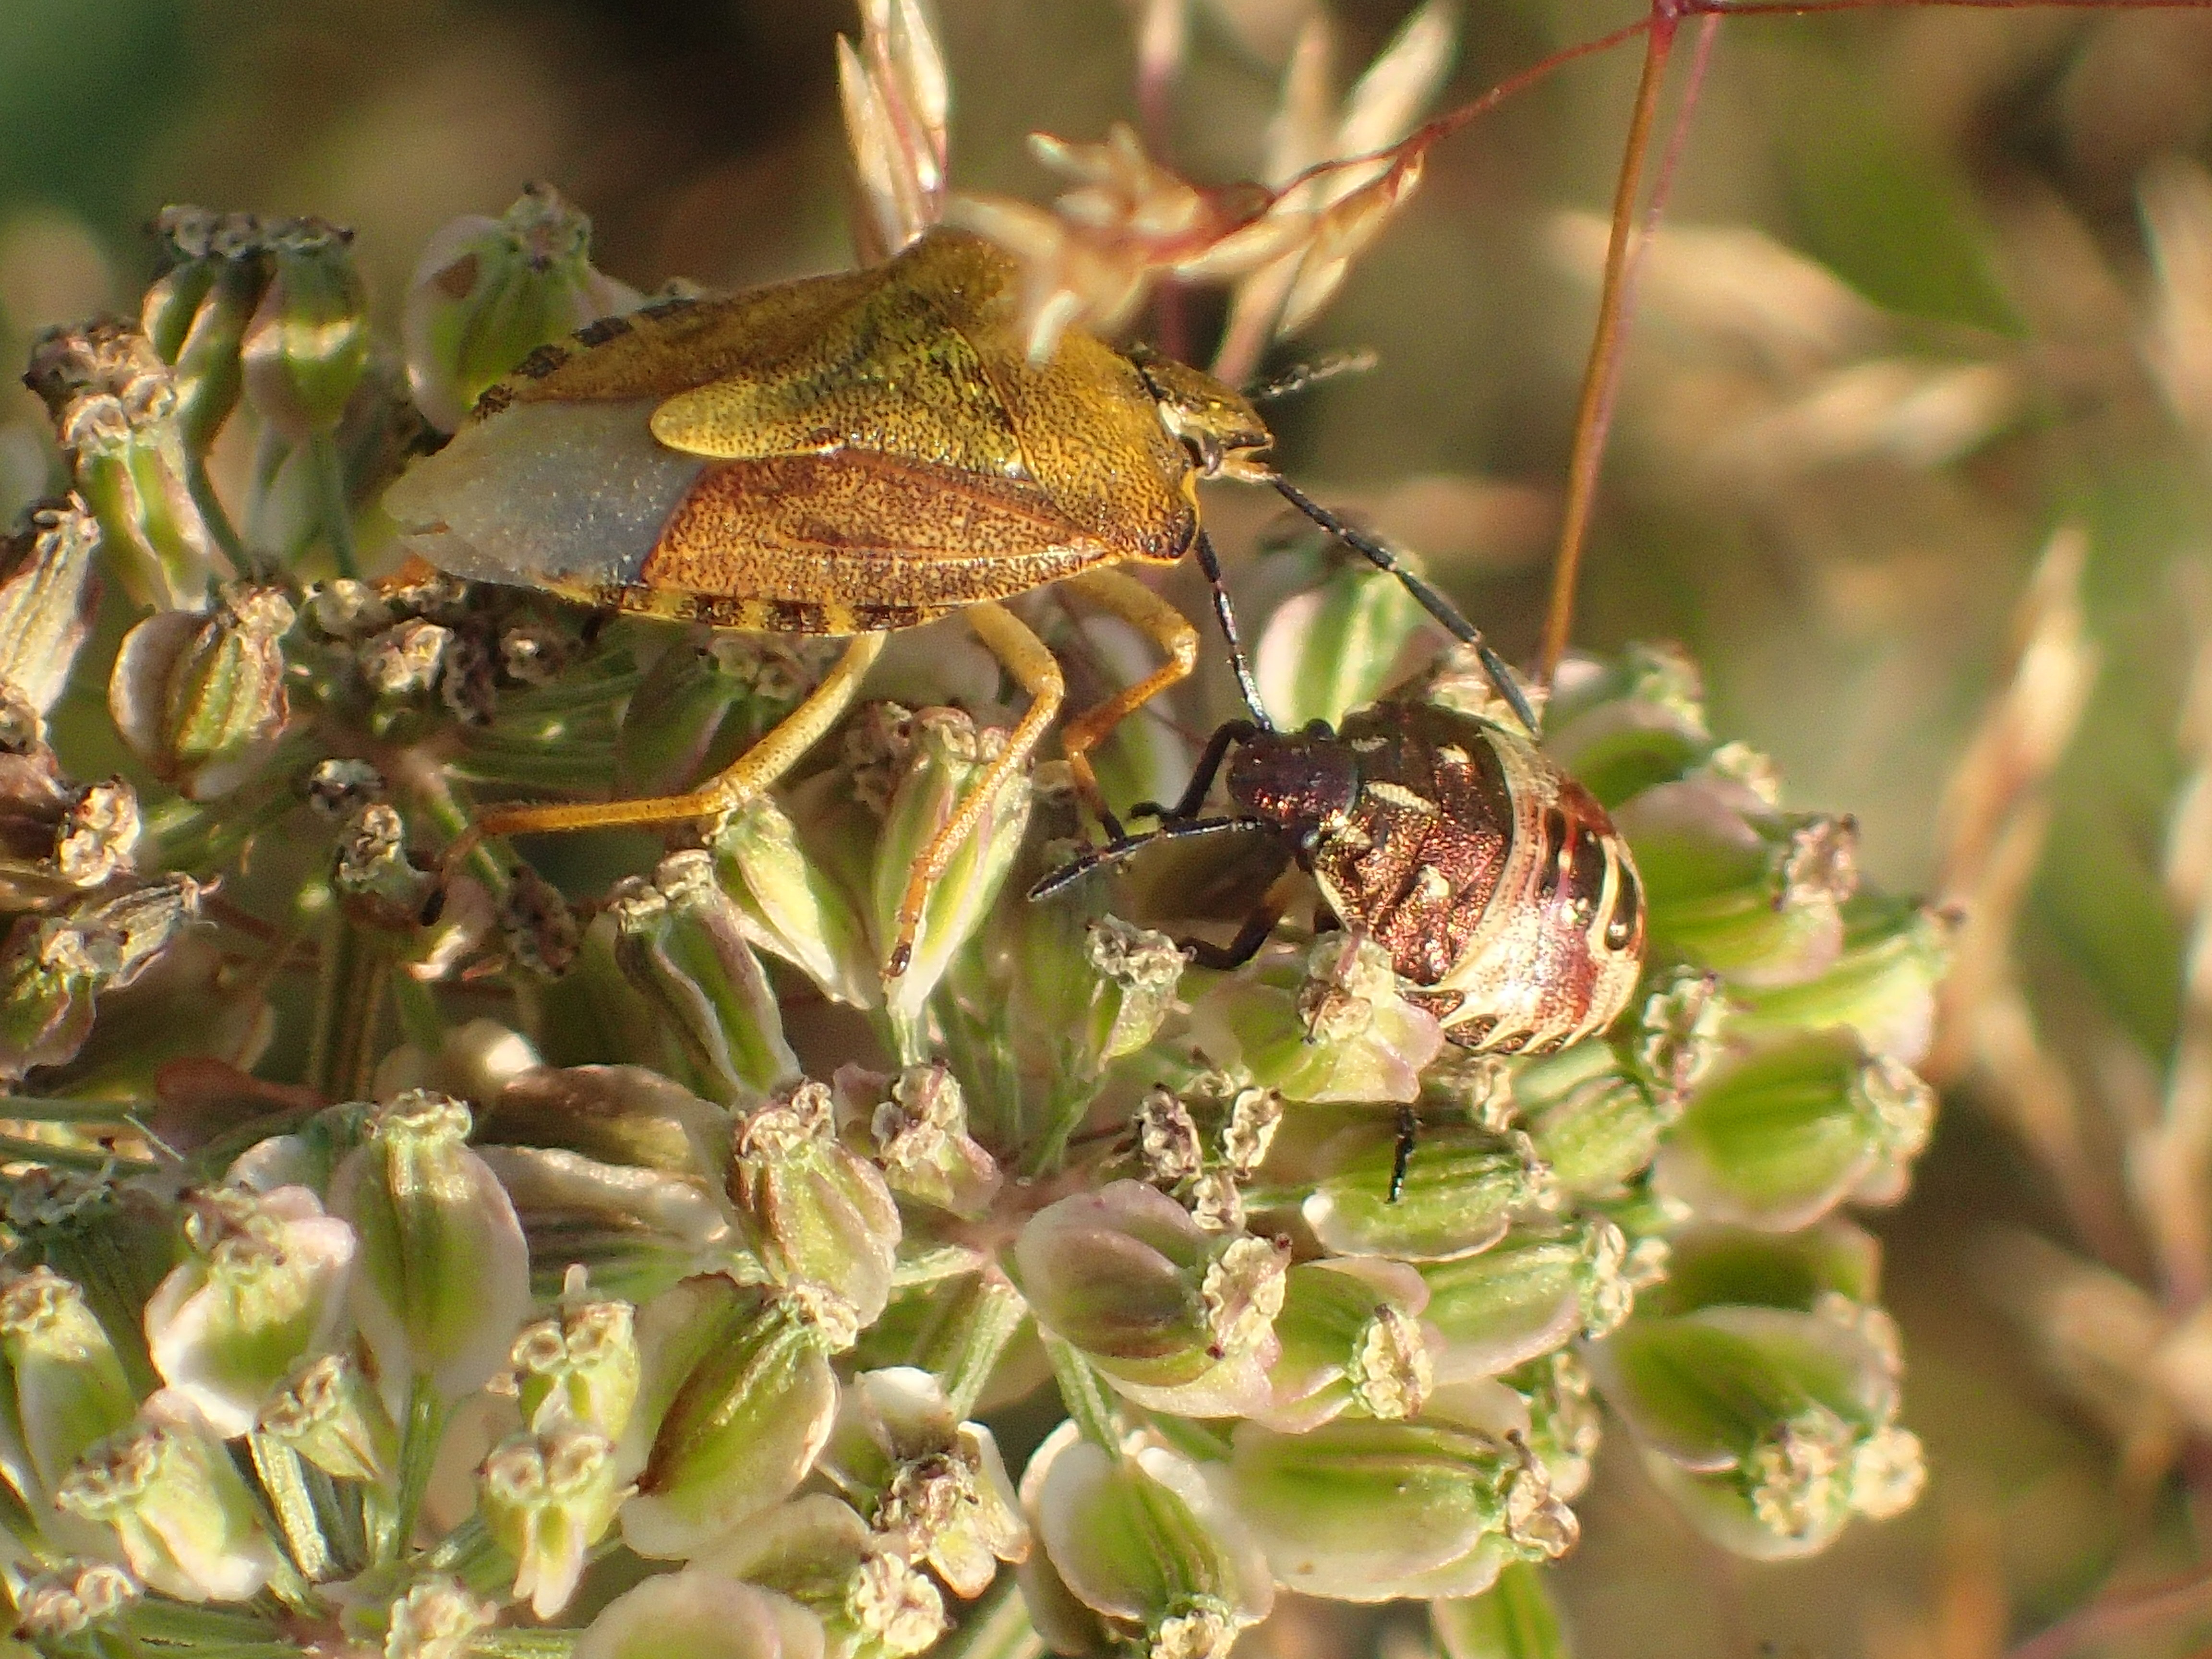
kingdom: Animalia
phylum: Arthropoda
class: Insecta
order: Hemiptera
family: Pentatomidae
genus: Carpocoris
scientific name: Carpocoris purpureipennis
